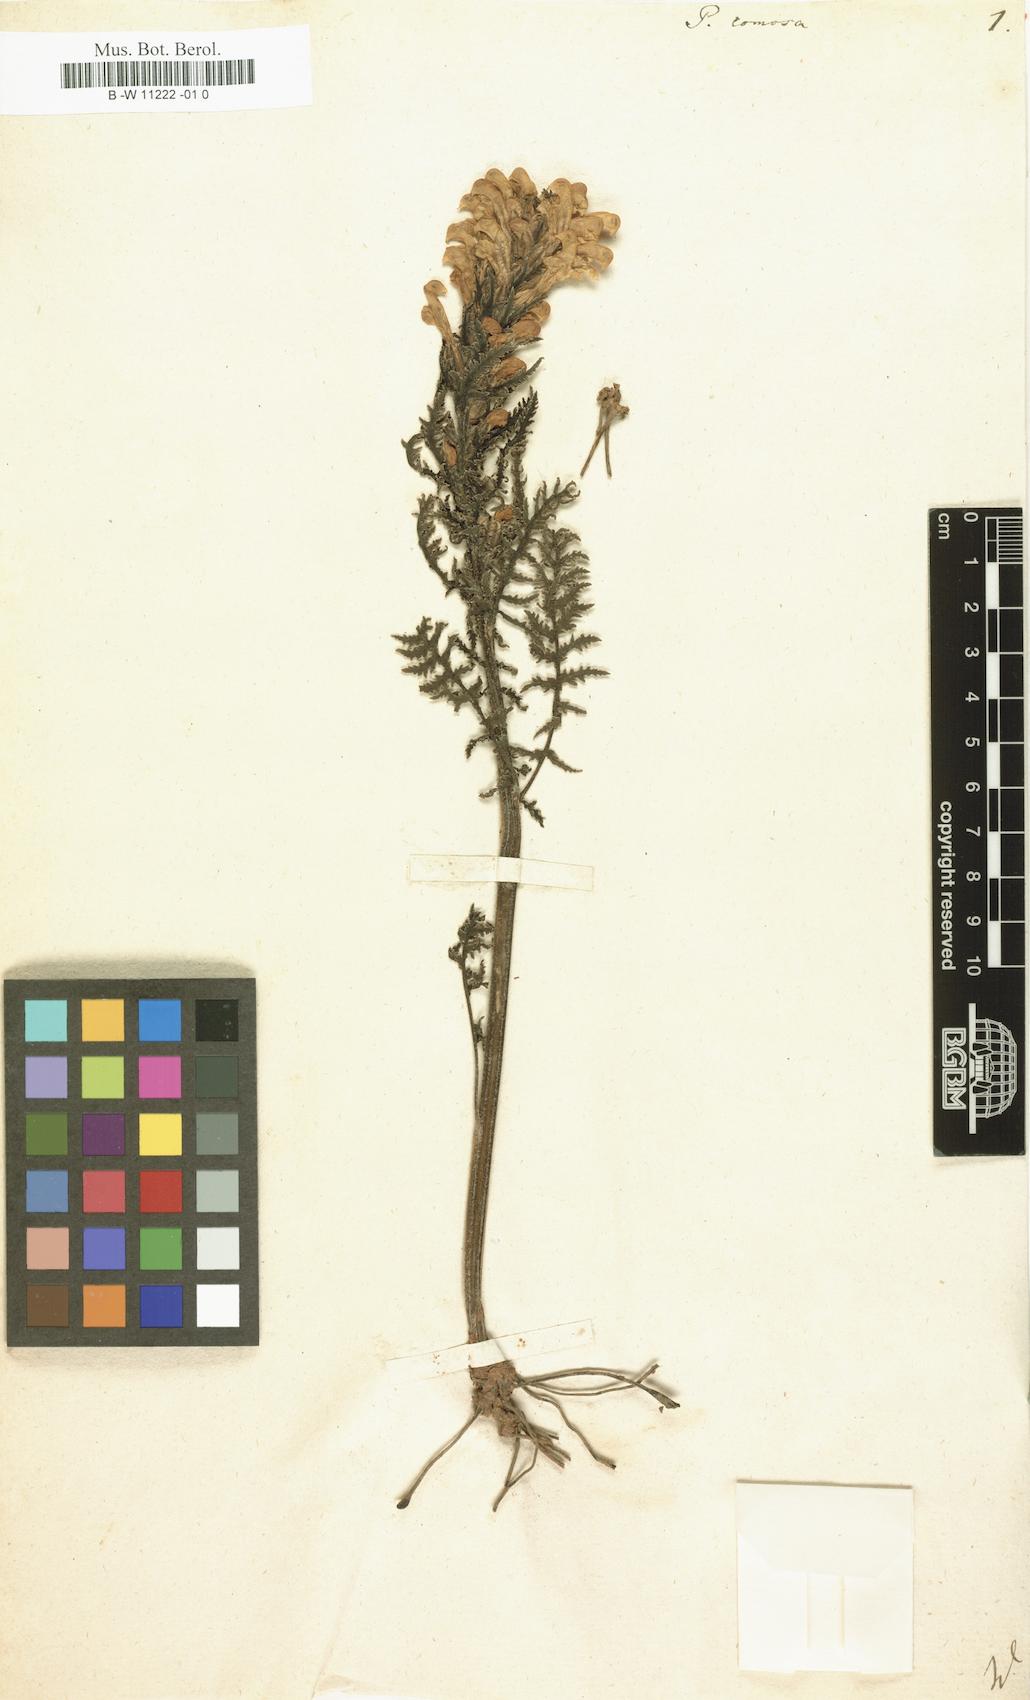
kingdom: Plantae
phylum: Tracheophyta
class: Magnoliopsida
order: Lamiales
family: Orobanchaceae
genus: Pedicularis
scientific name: Pedicularis comosa
